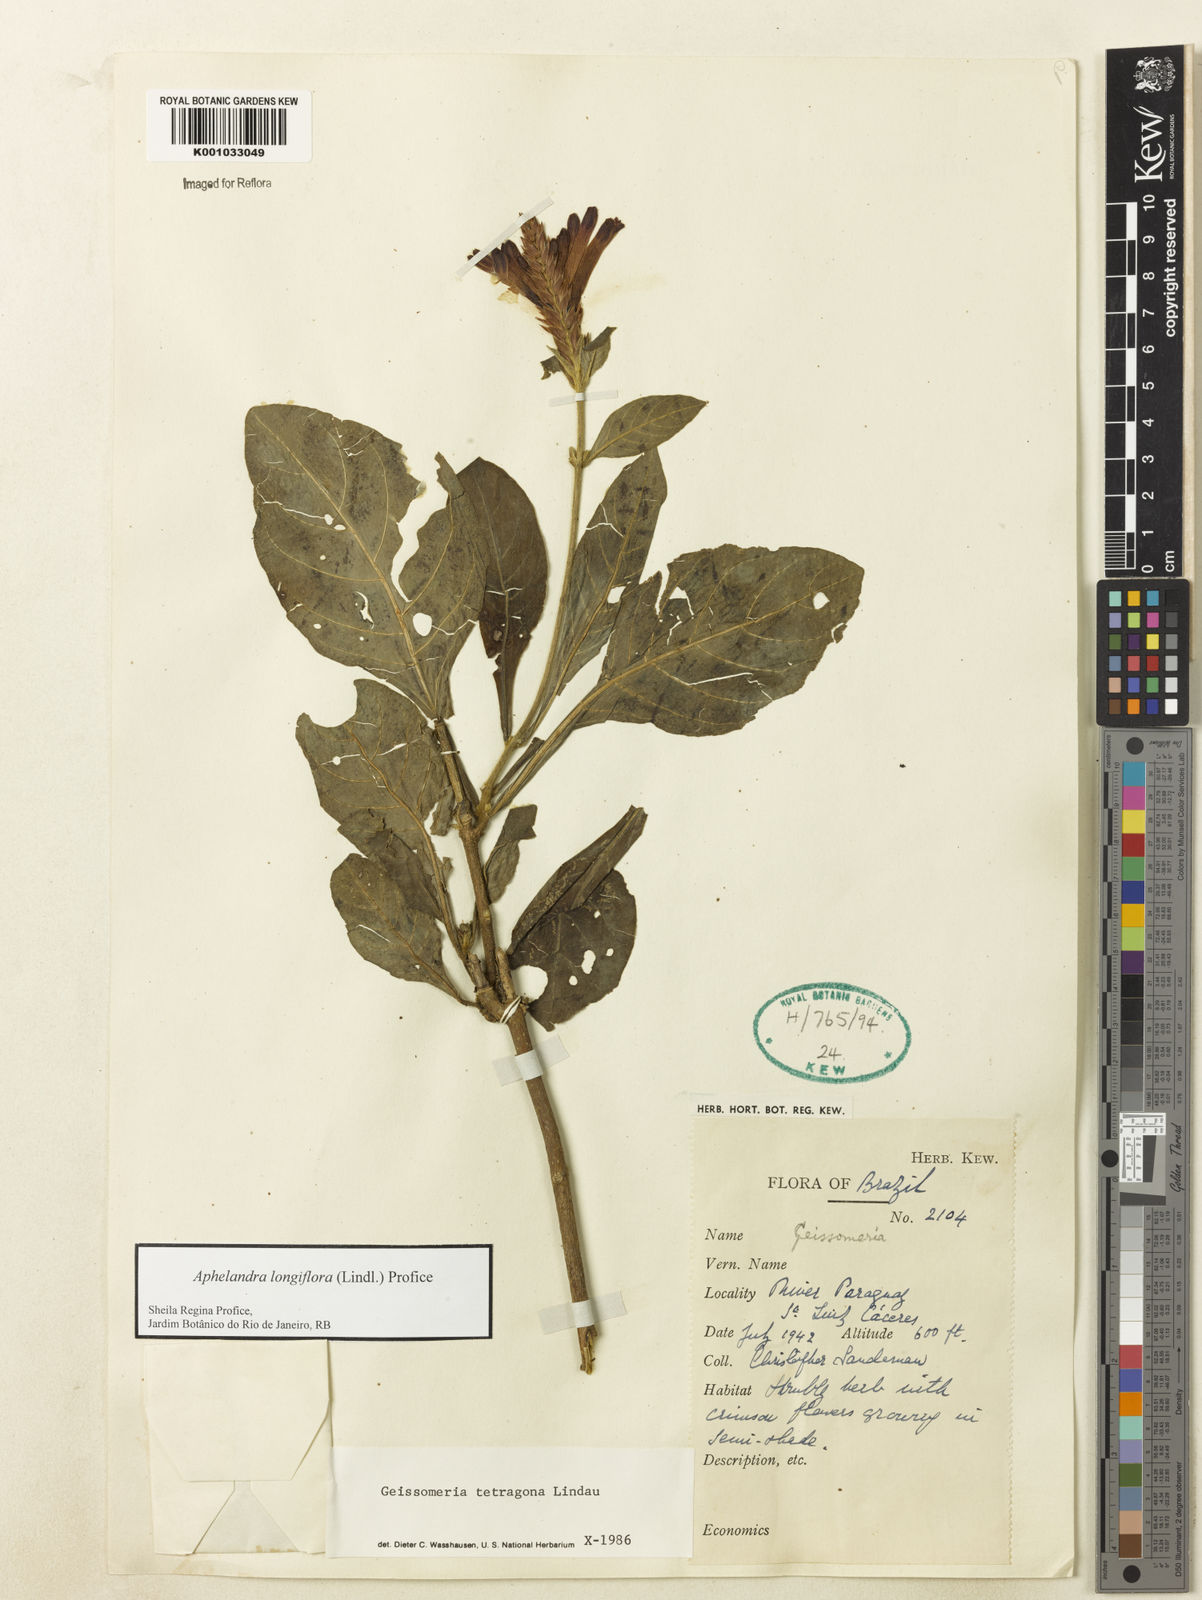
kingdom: Plantae
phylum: Tracheophyta
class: Magnoliopsida
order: Lamiales
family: Acanthaceae
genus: Aphelandra
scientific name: Aphelandra longiflora
